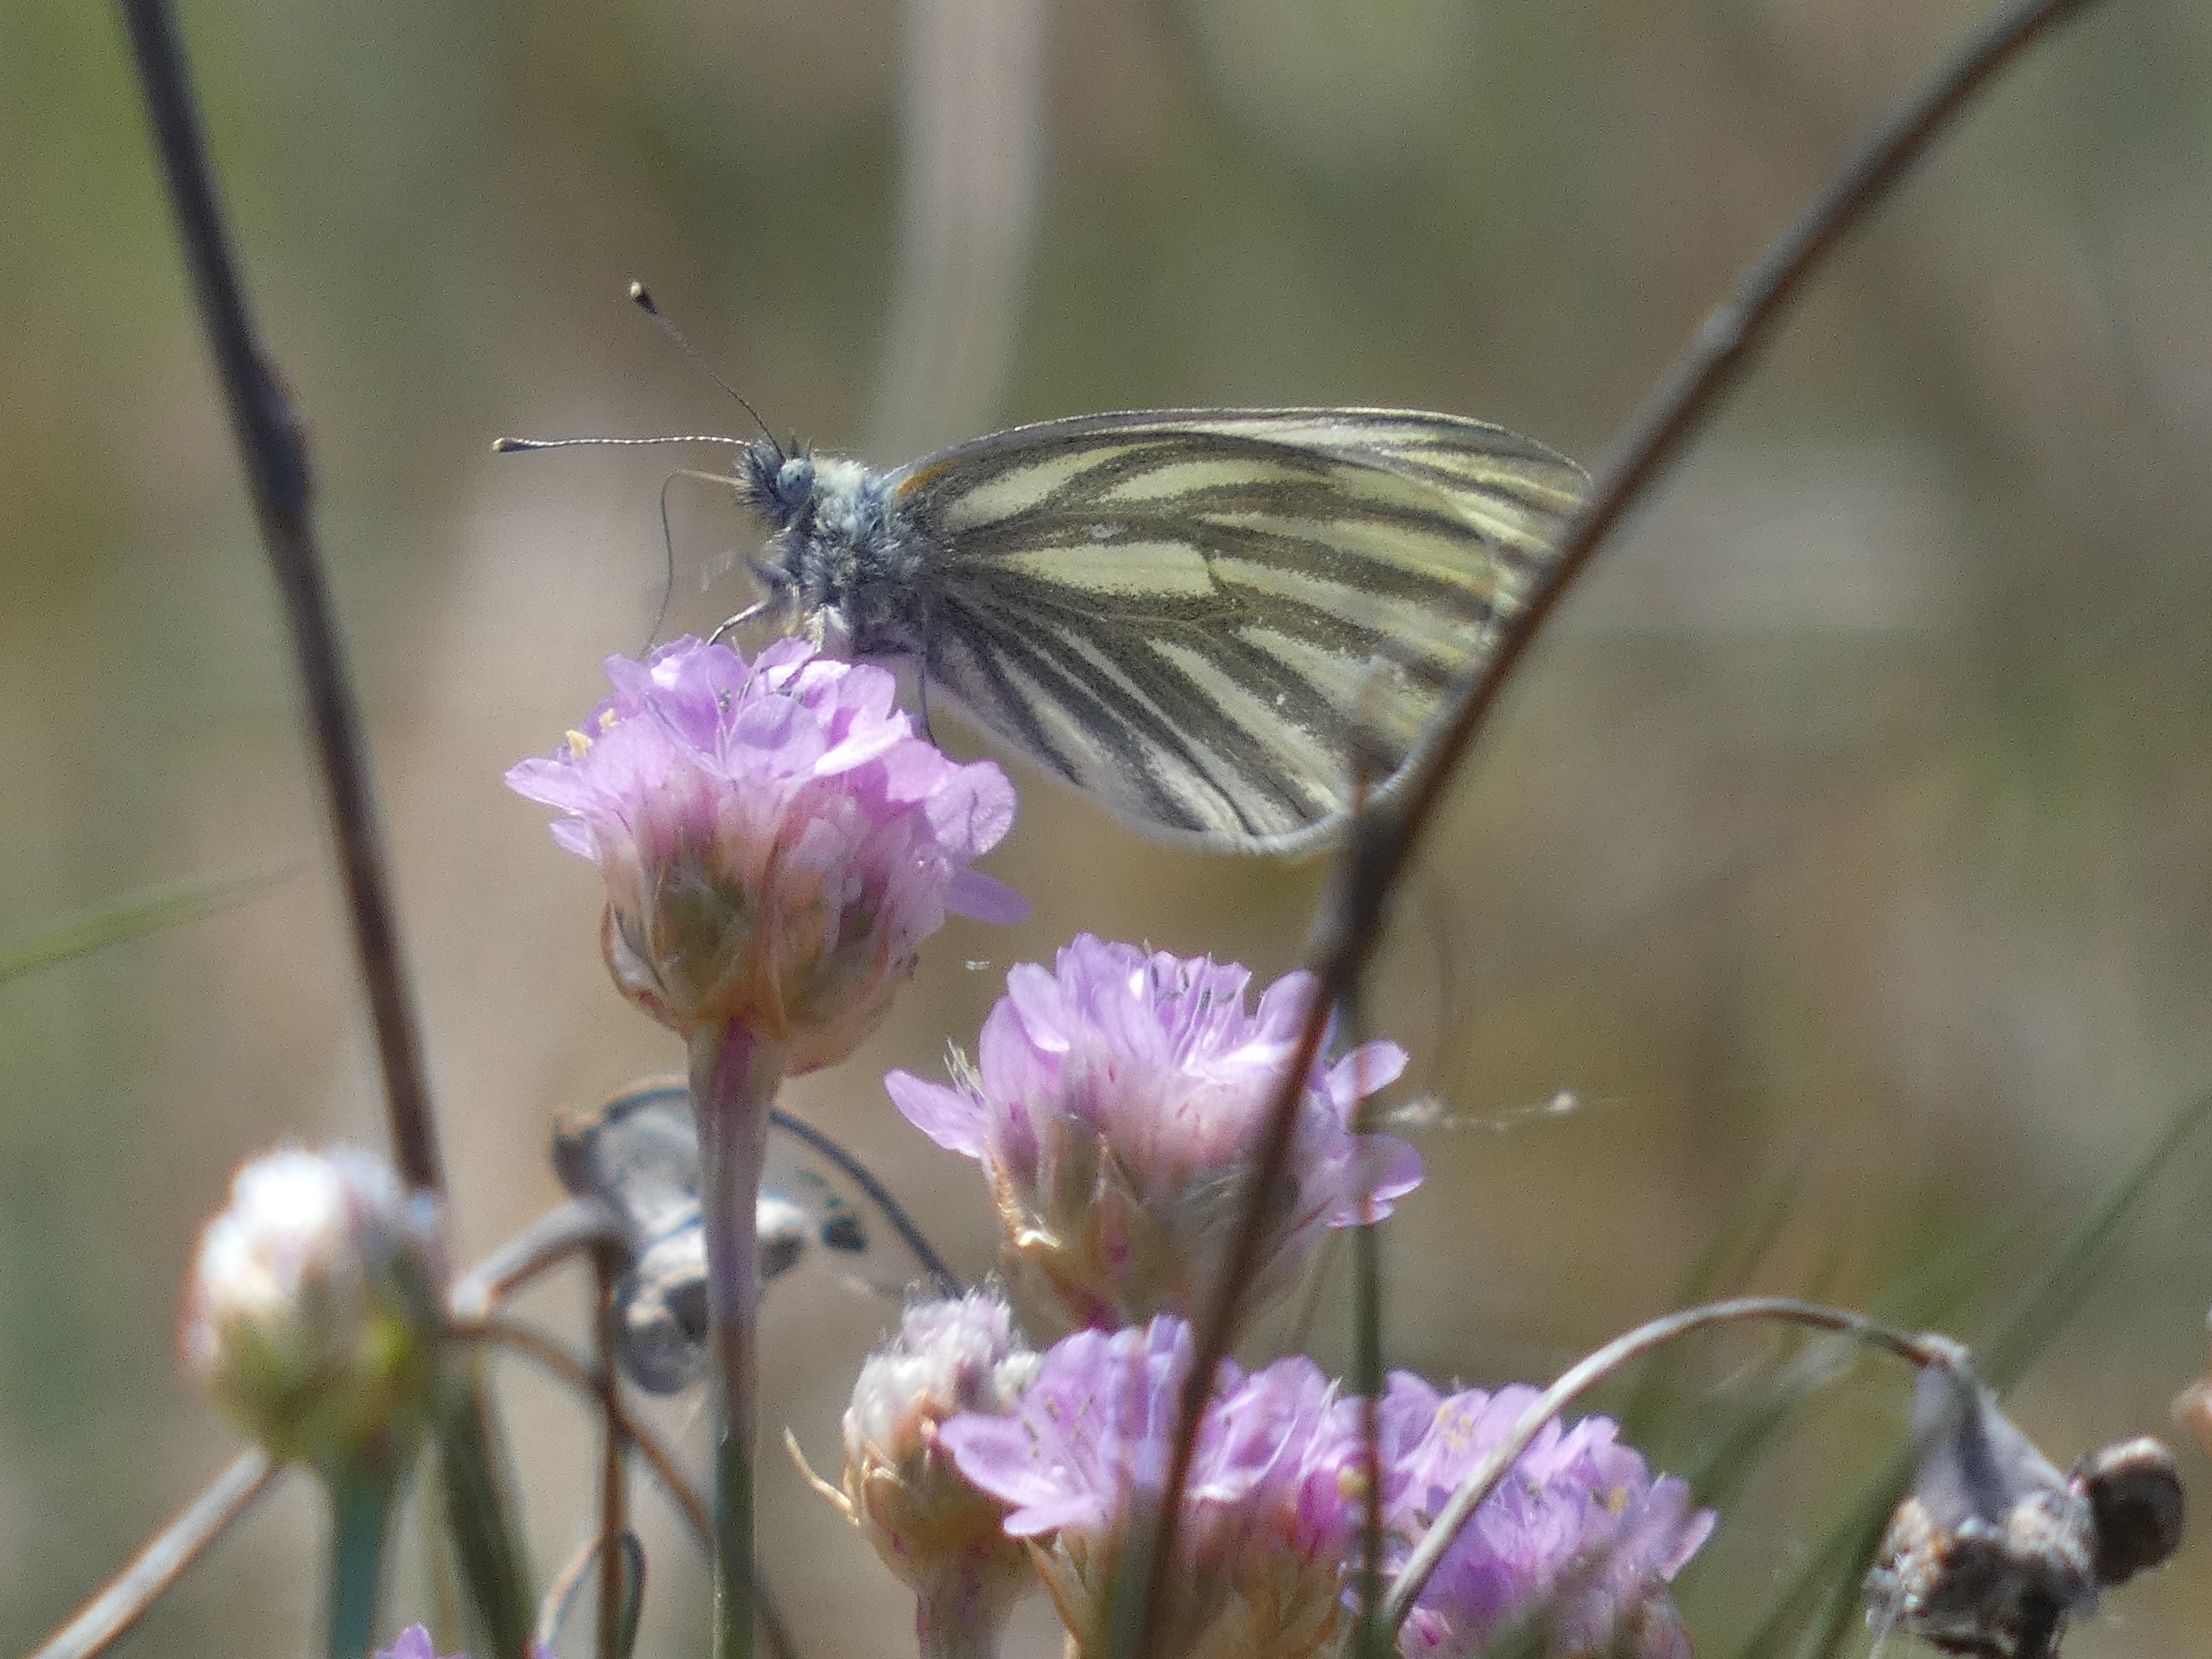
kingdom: Animalia
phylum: Arthropoda
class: Insecta
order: Lepidoptera
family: Pieridae
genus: Pieris
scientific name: Pieris napi
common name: Grønåret kålsommerfugl
